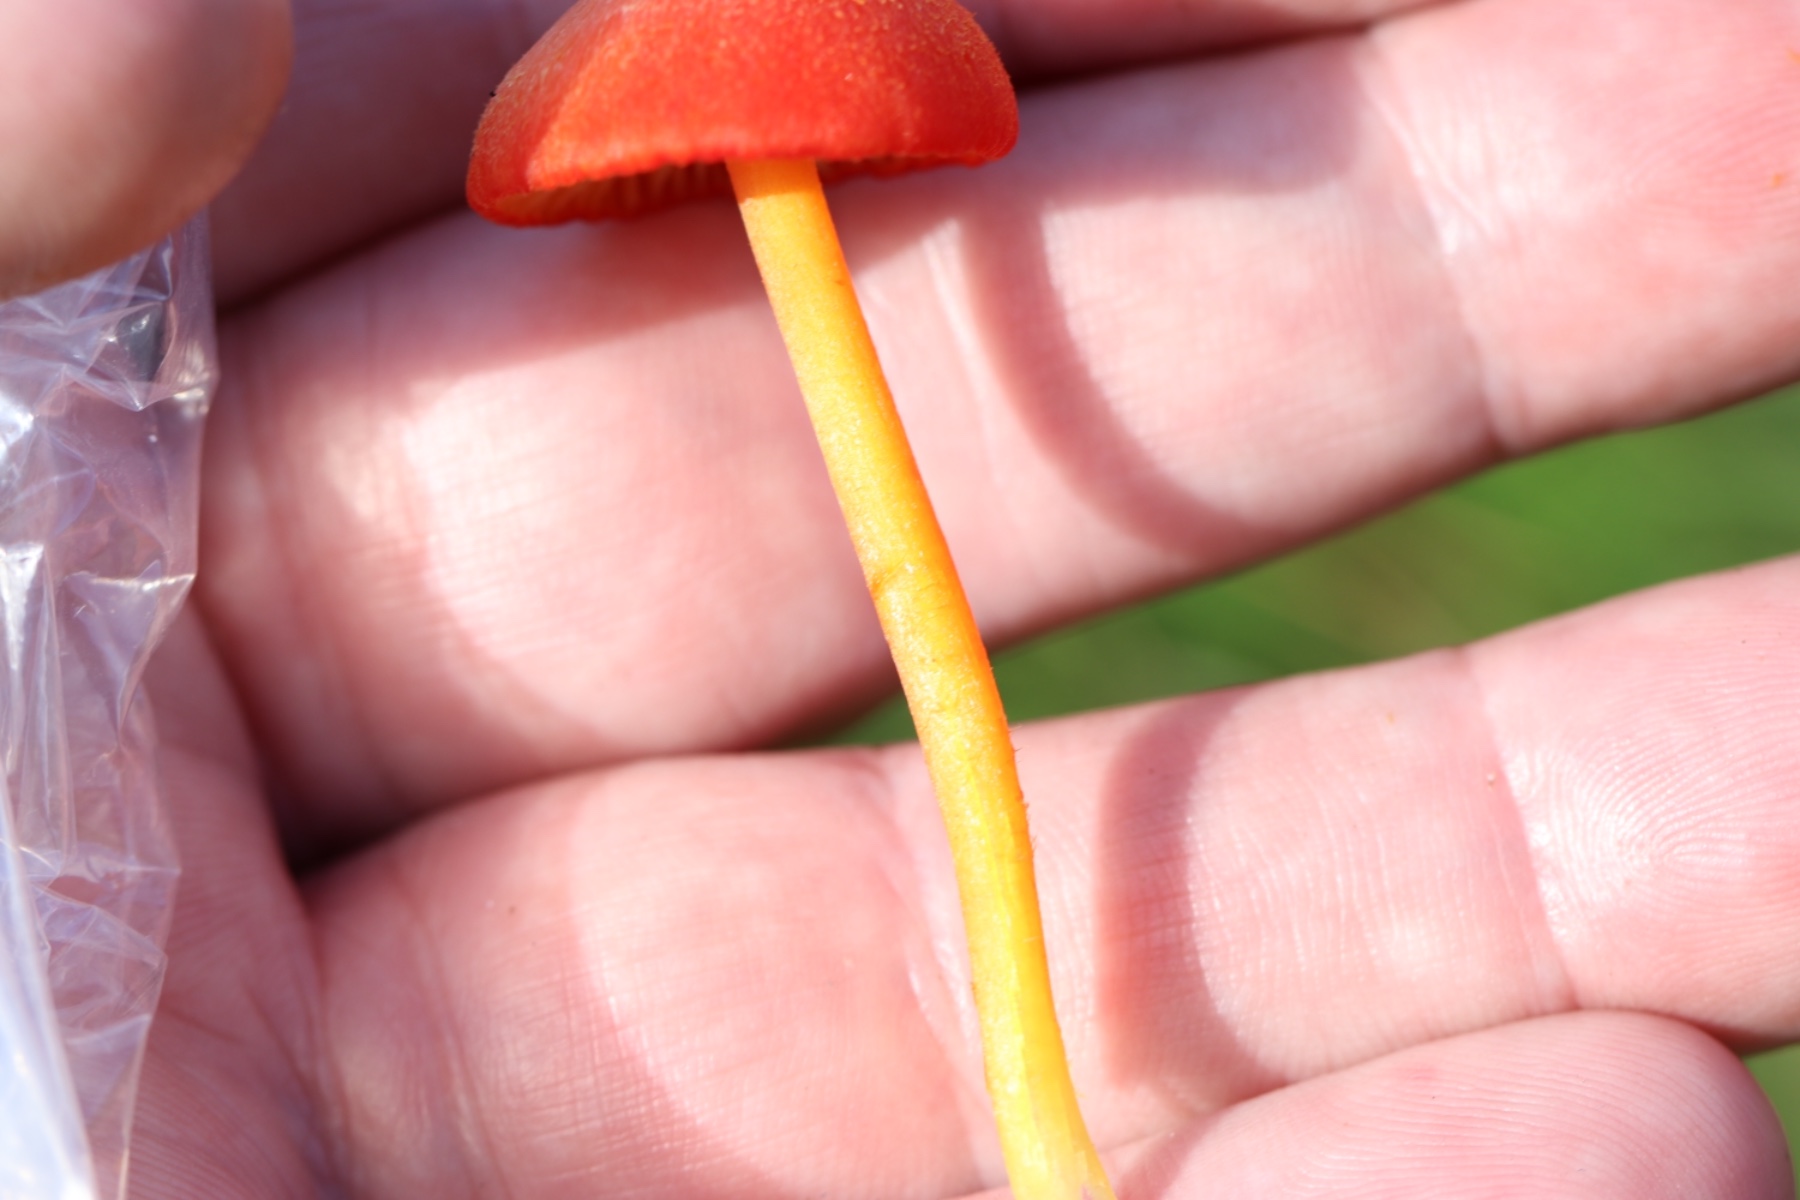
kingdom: Fungi
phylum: Basidiomycota
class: Agaricomycetes
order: Agaricales
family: Hygrophoraceae
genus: Hygrocybe
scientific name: Hygrocybe helobia
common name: hvidløgs-vokshat
